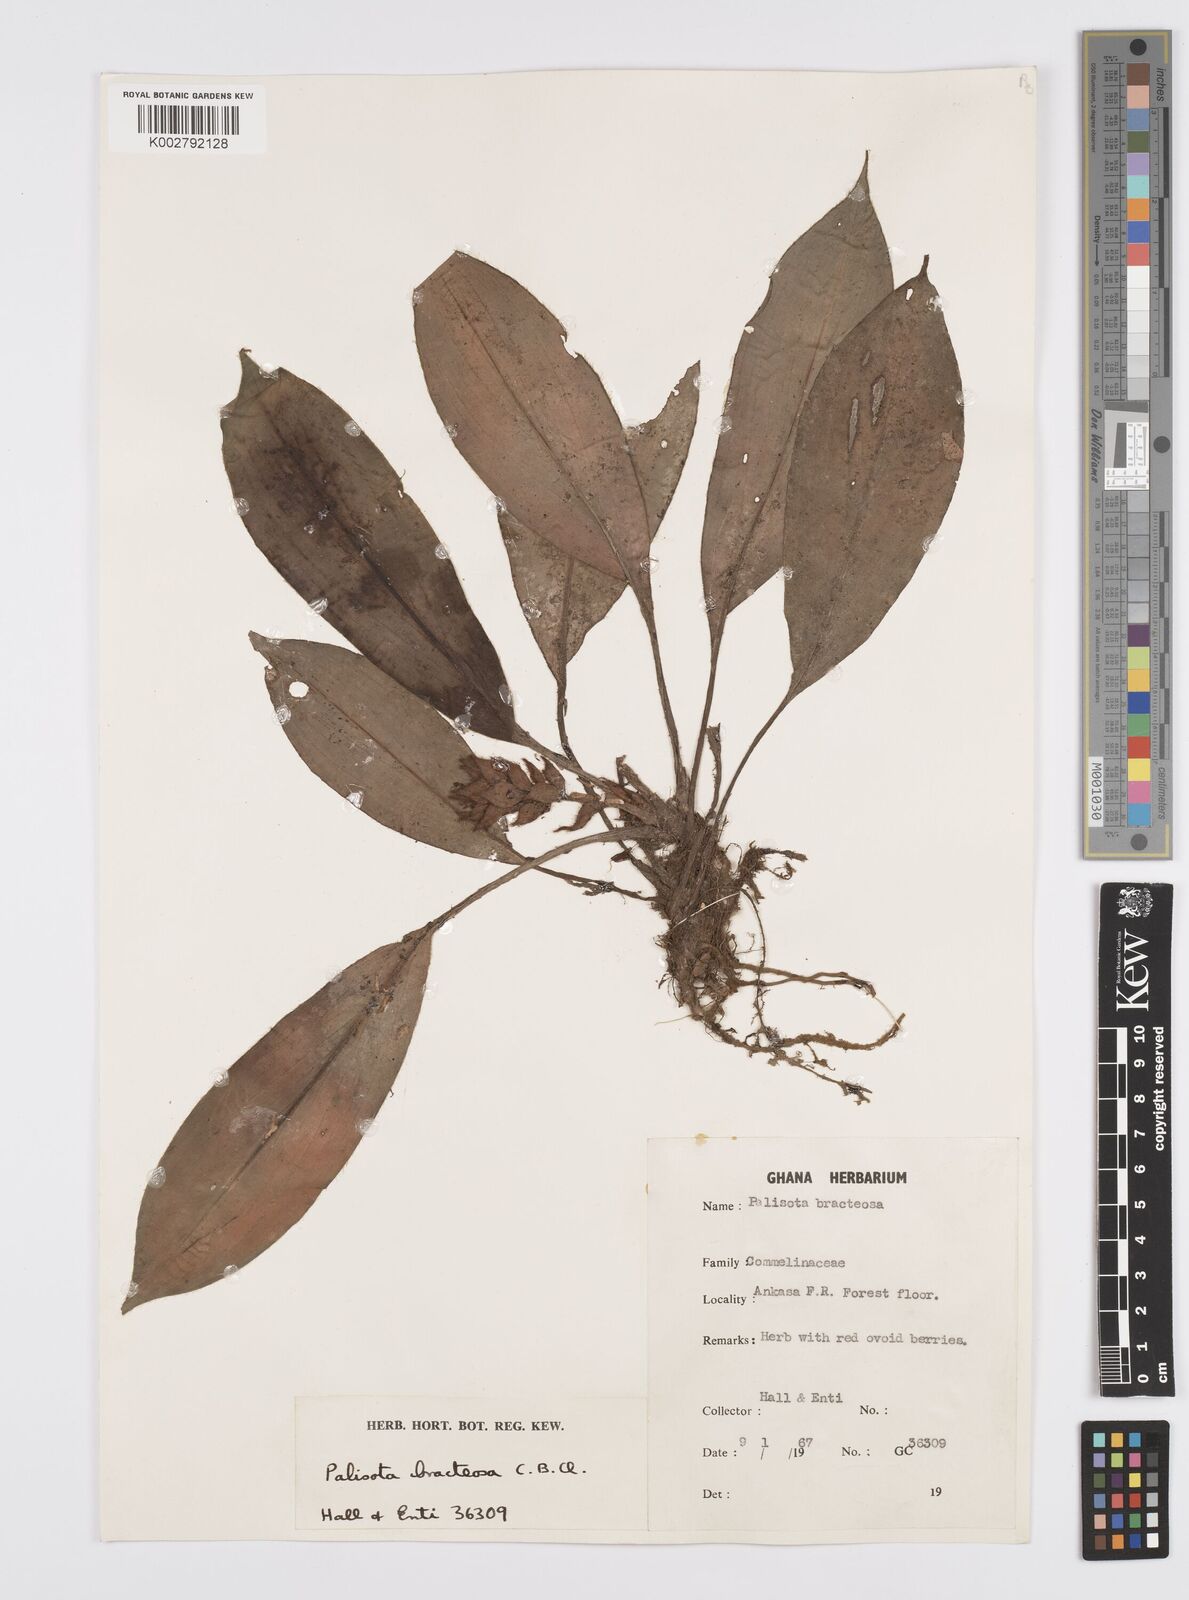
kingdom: Plantae
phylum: Tracheophyta
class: Liliopsida
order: Commelinales
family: Commelinaceae
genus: Palisota
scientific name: Palisota bracteosa
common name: Palisota
